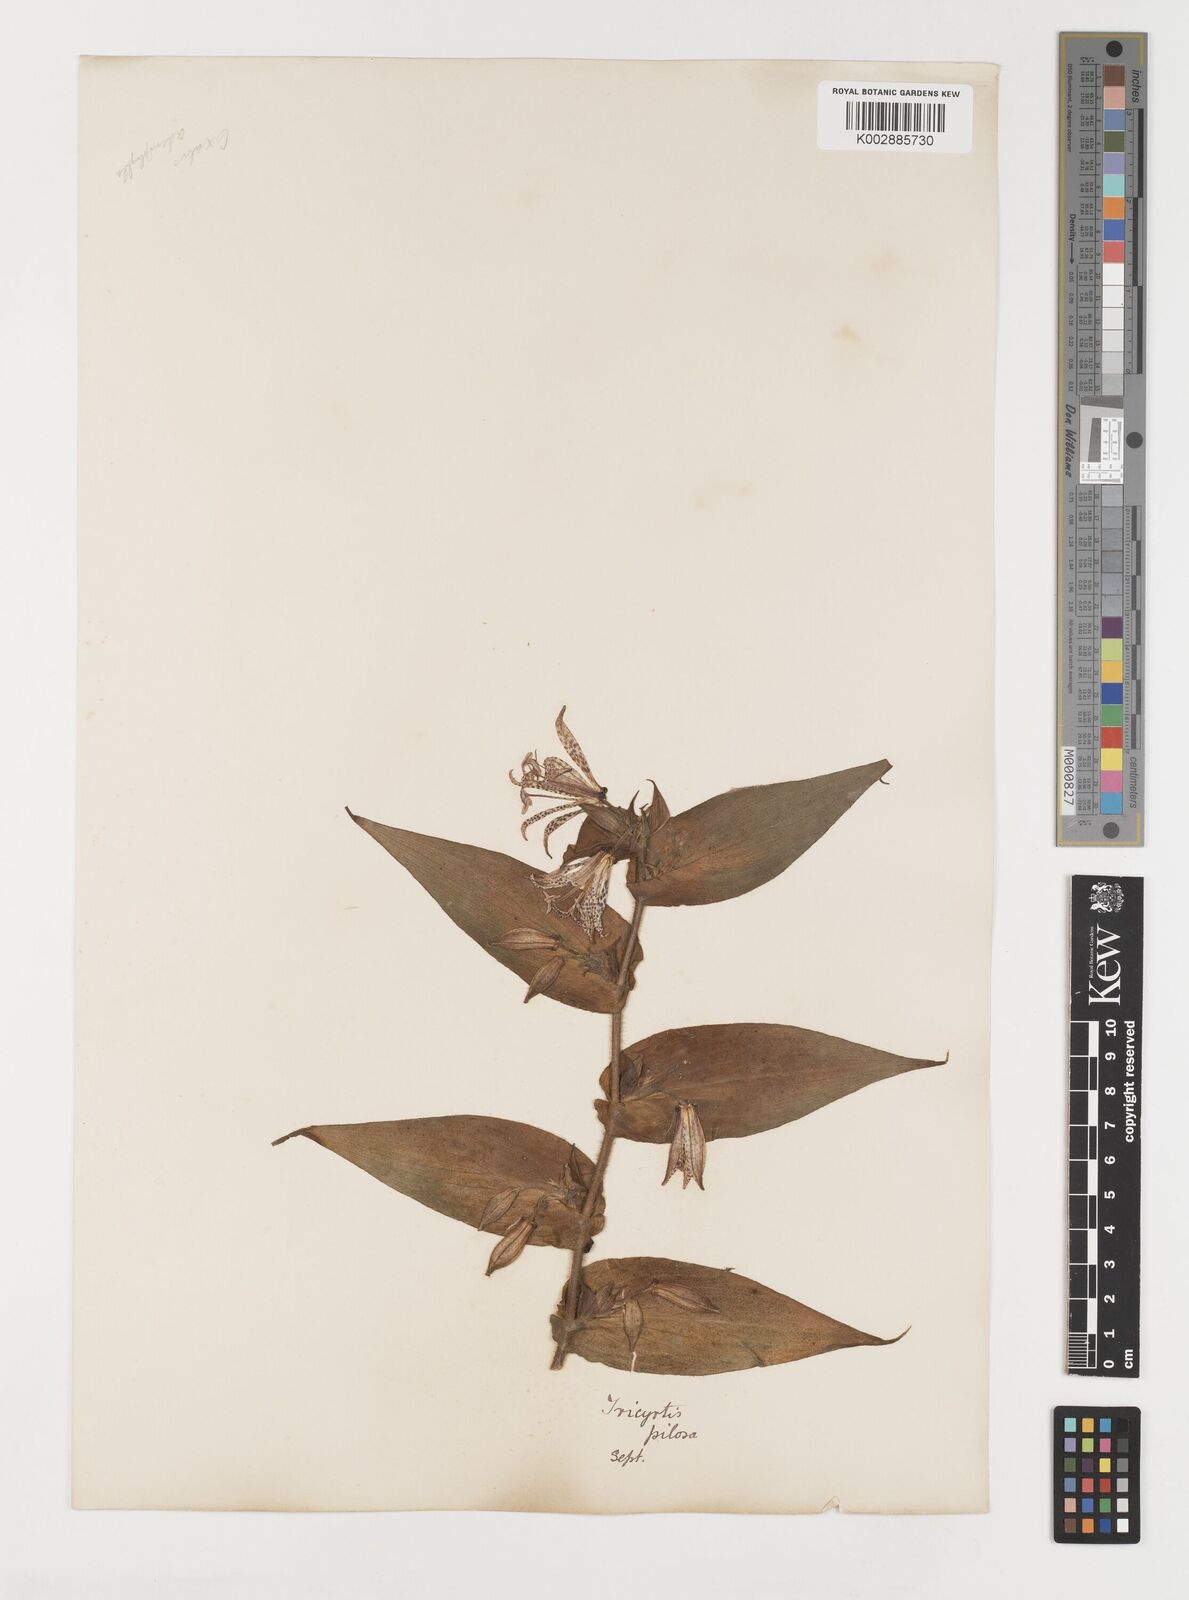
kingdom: Plantae
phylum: Tracheophyta
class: Liliopsida
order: Liliales
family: Liliaceae
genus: Tricyrtis
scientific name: Tricyrtis maculata
